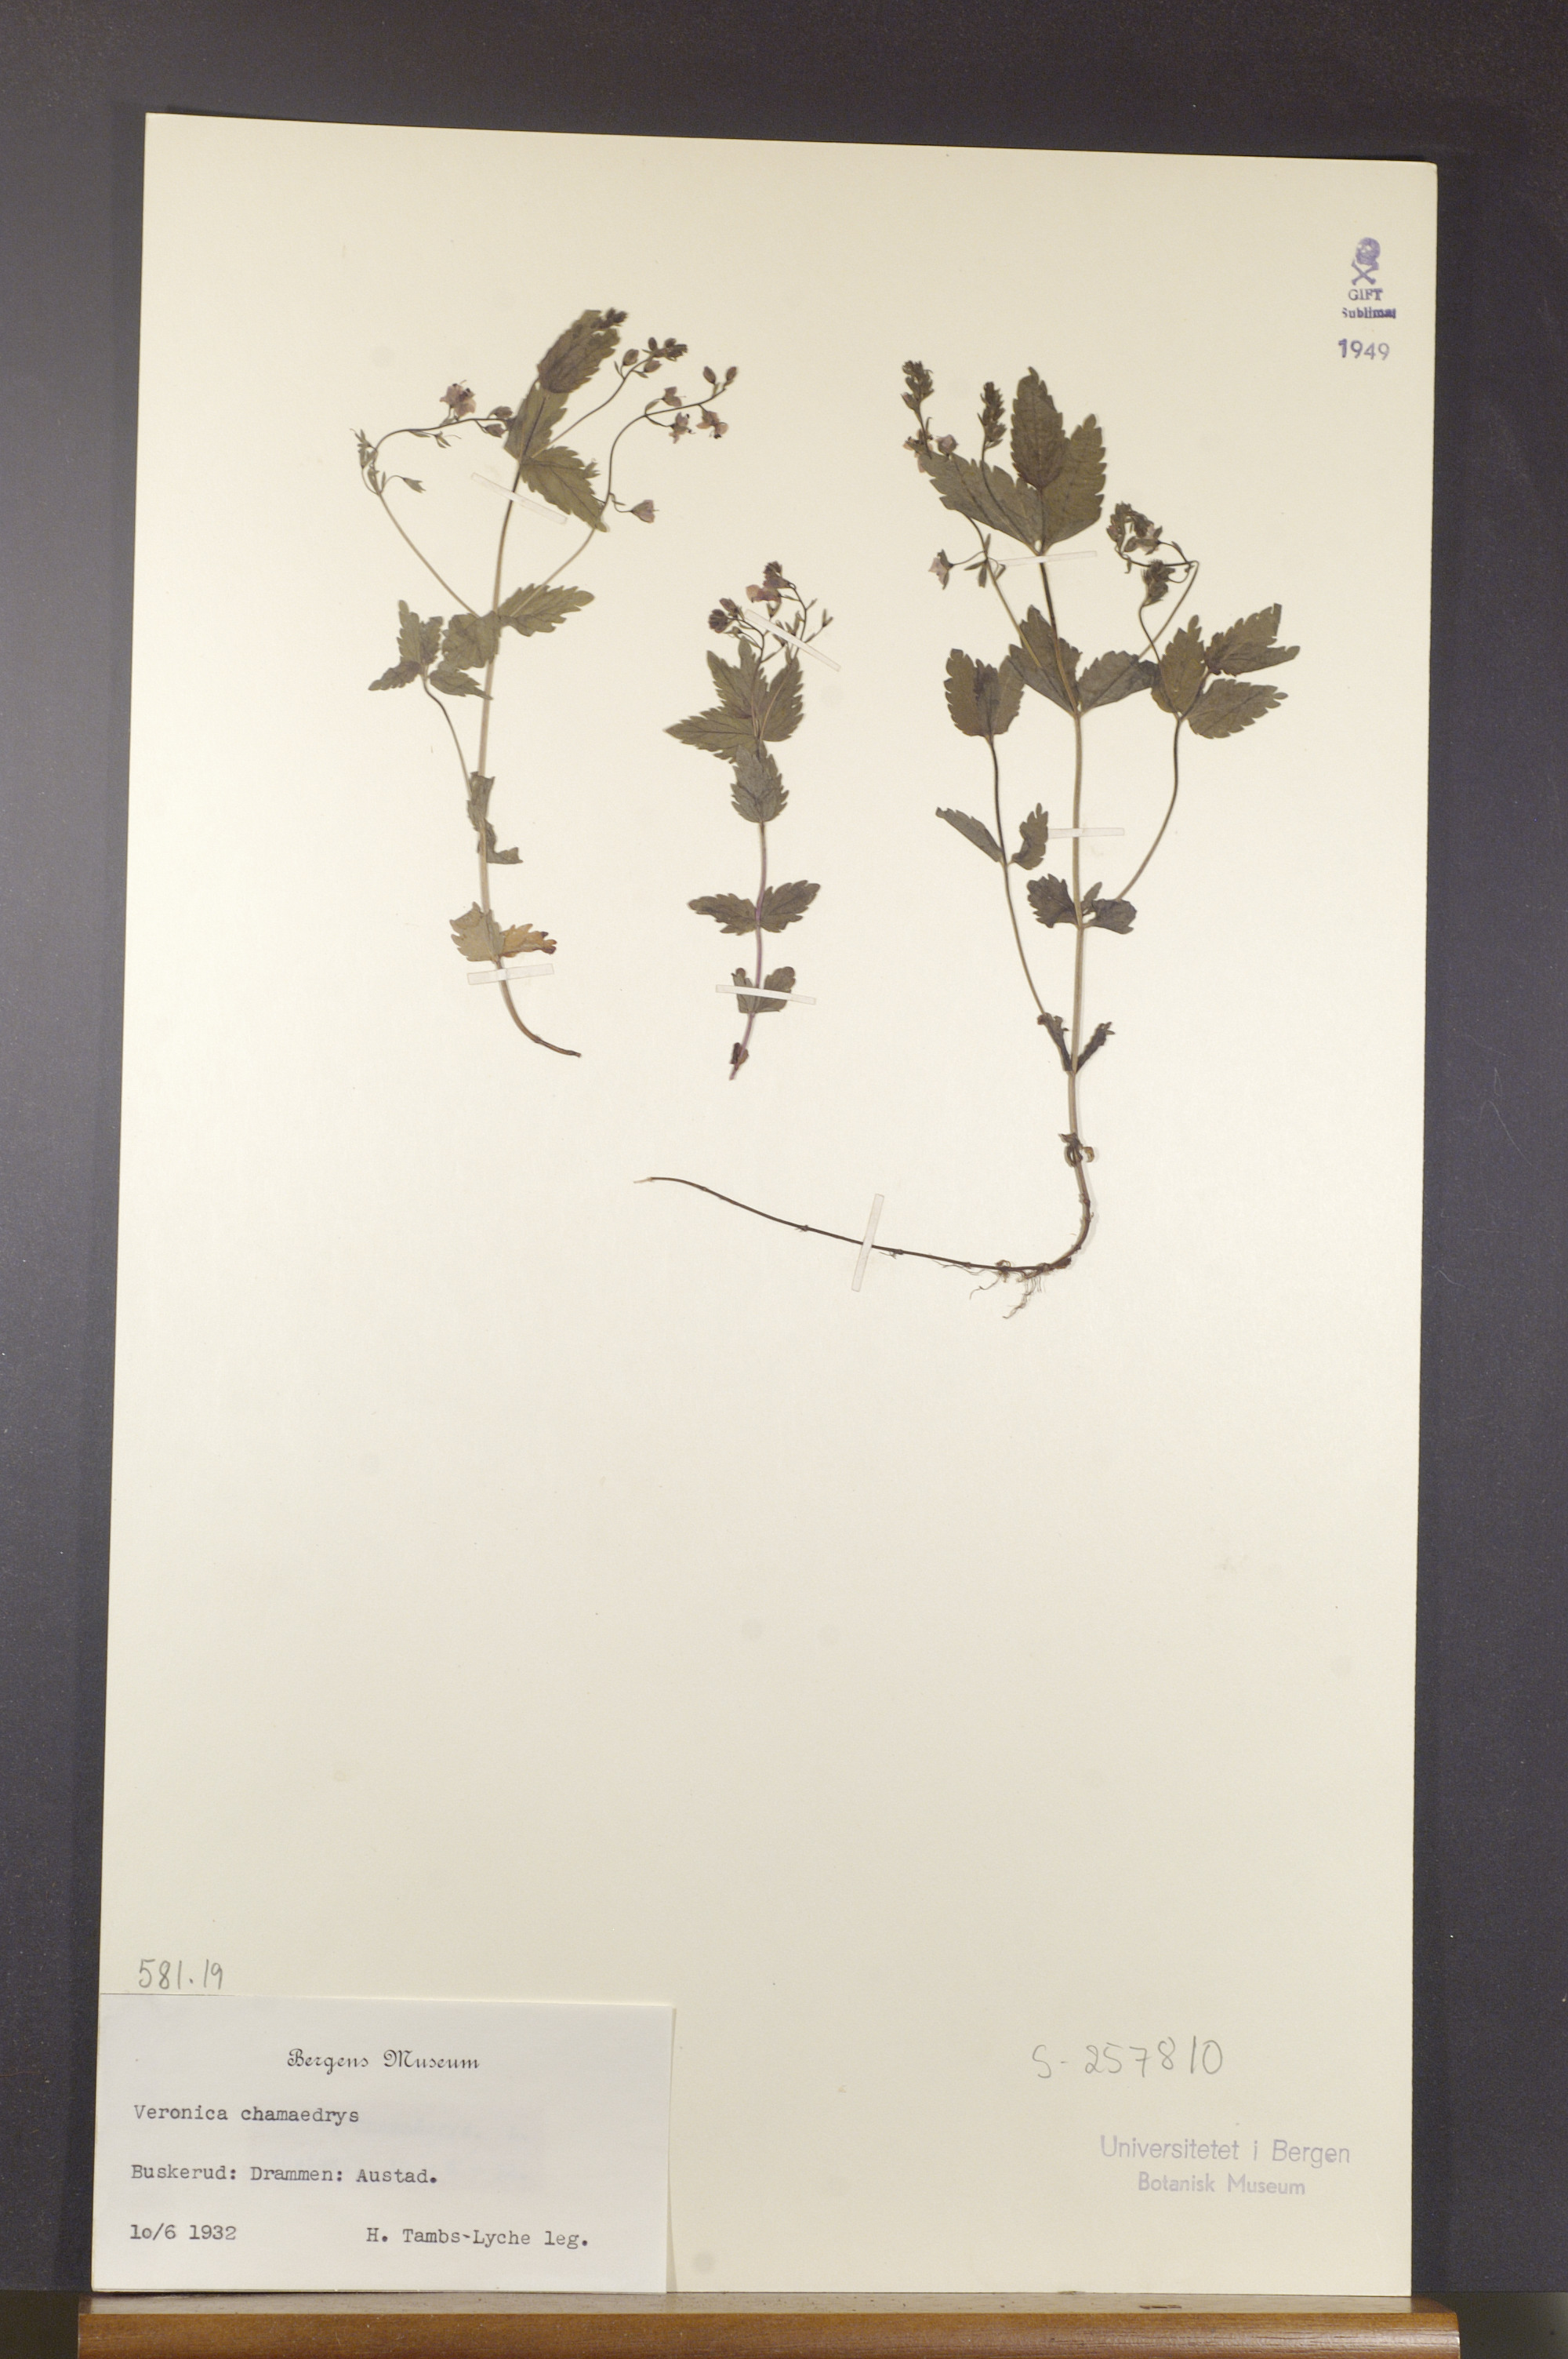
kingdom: Plantae
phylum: Tracheophyta
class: Magnoliopsida
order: Lamiales
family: Plantaginaceae
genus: Veronica
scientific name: Veronica chamaedrys
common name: Germander speedwell
